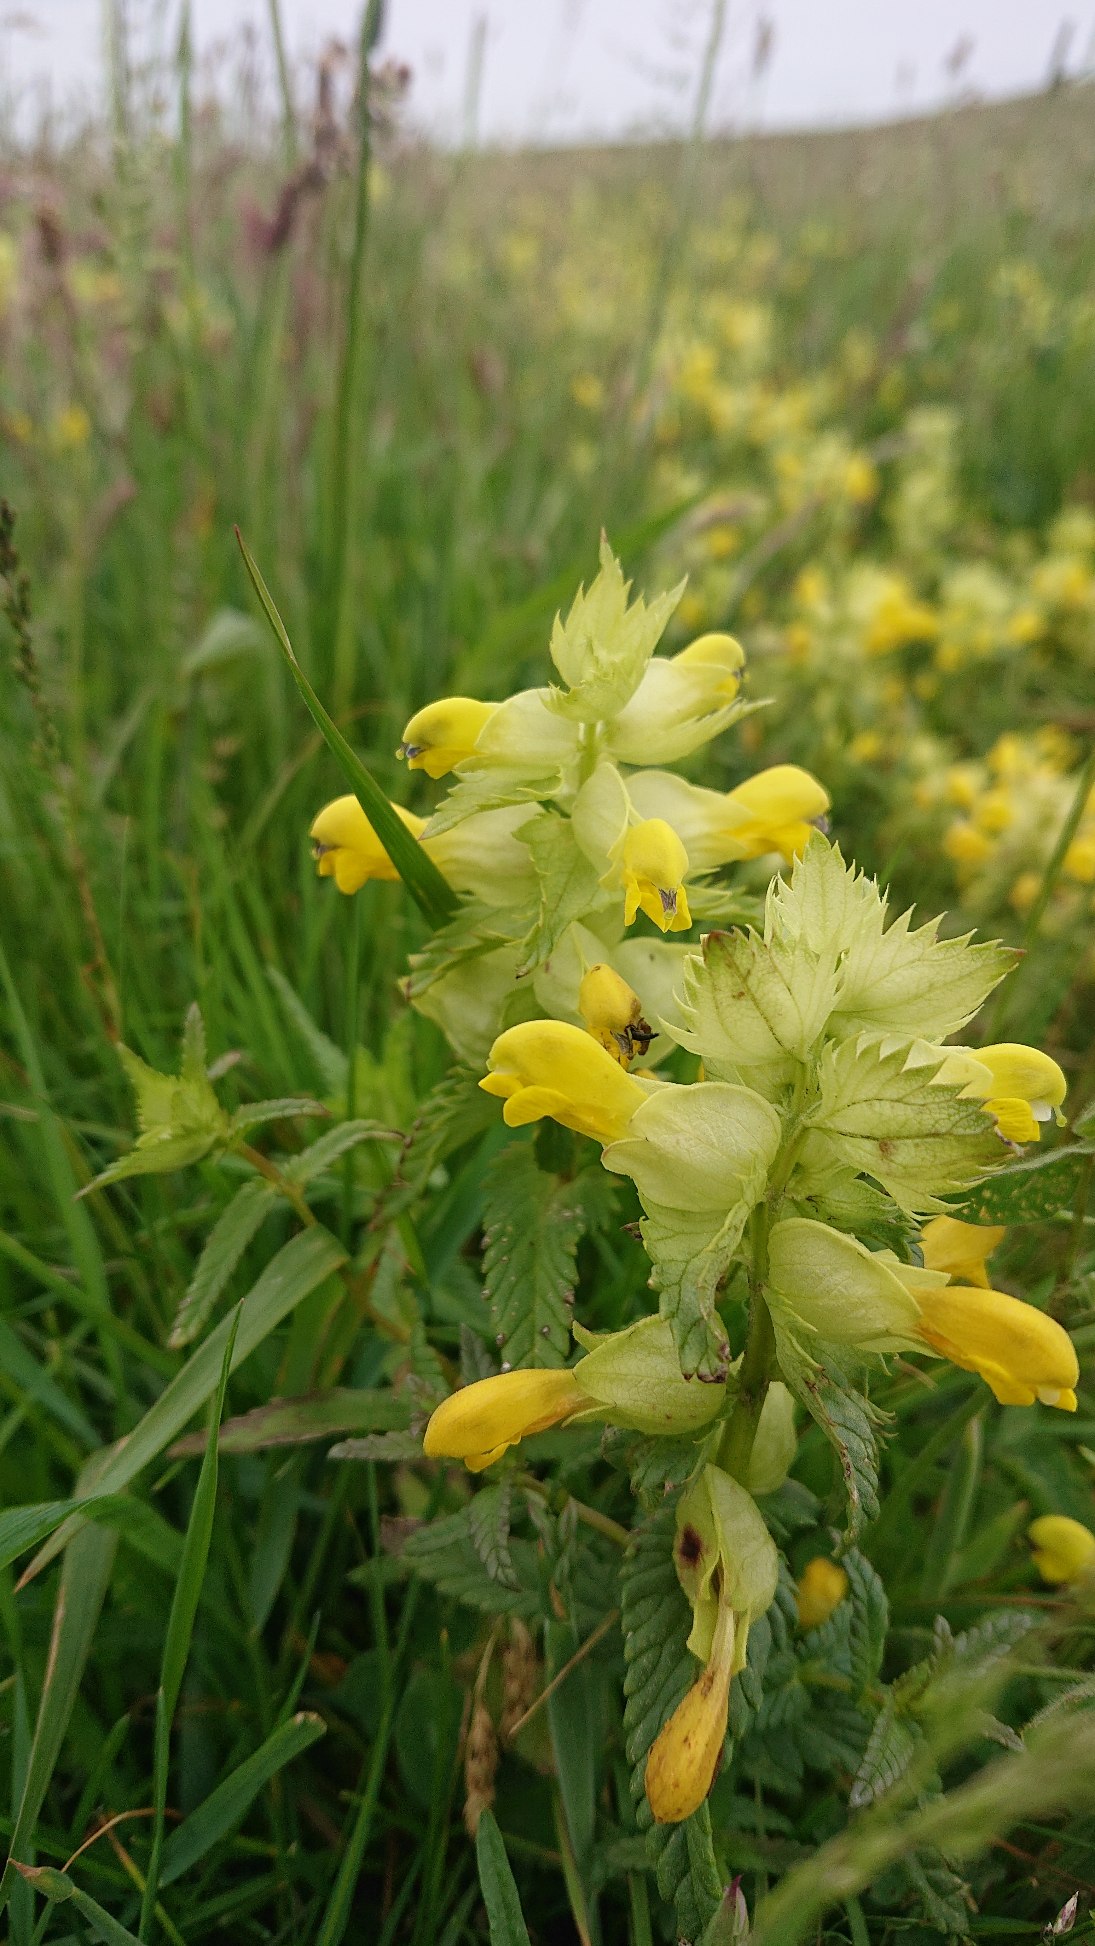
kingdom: Plantae
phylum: Tracheophyta
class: Magnoliopsida
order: Lamiales
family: Orobanchaceae
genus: Rhinanthus
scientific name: Rhinanthus
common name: Stor skjaller
